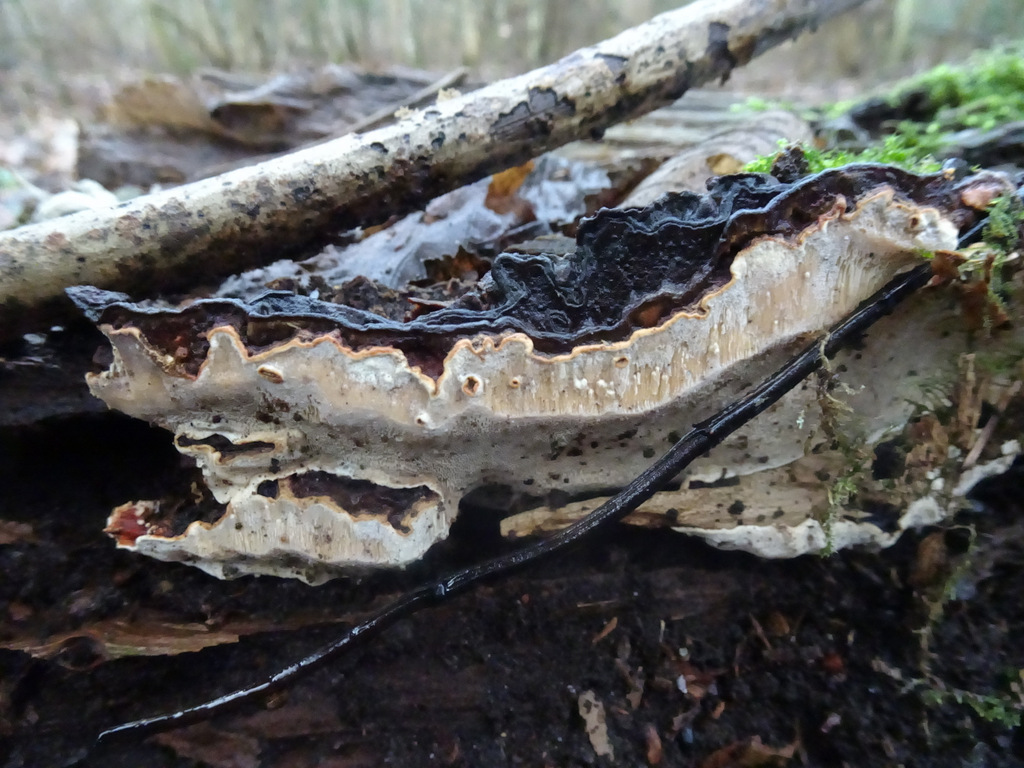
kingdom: Fungi
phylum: Basidiomycota
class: Agaricomycetes
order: Russulales
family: Bondarzewiaceae
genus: Heterobasidion
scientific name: Heterobasidion
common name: rodfordærver
